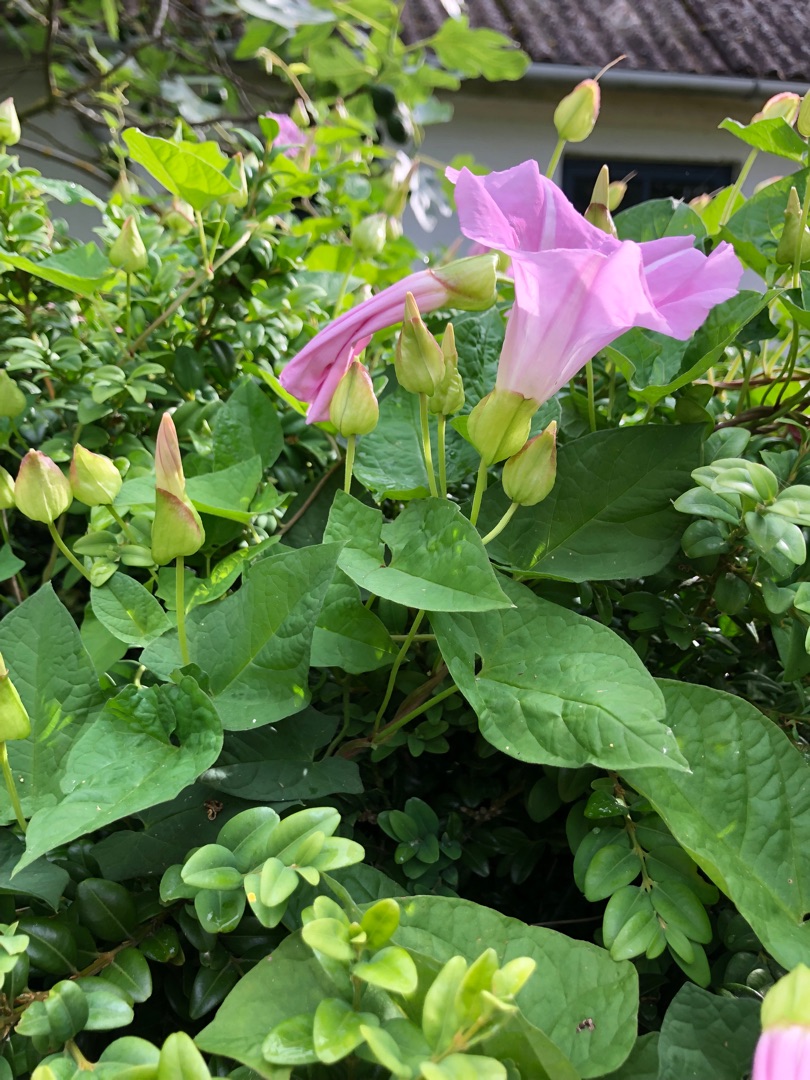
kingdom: Plantae
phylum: Tracheophyta
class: Magnoliopsida
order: Solanales
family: Convolvulaceae
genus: Calystegia
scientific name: Calystegia pulchra
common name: Have-snerle
